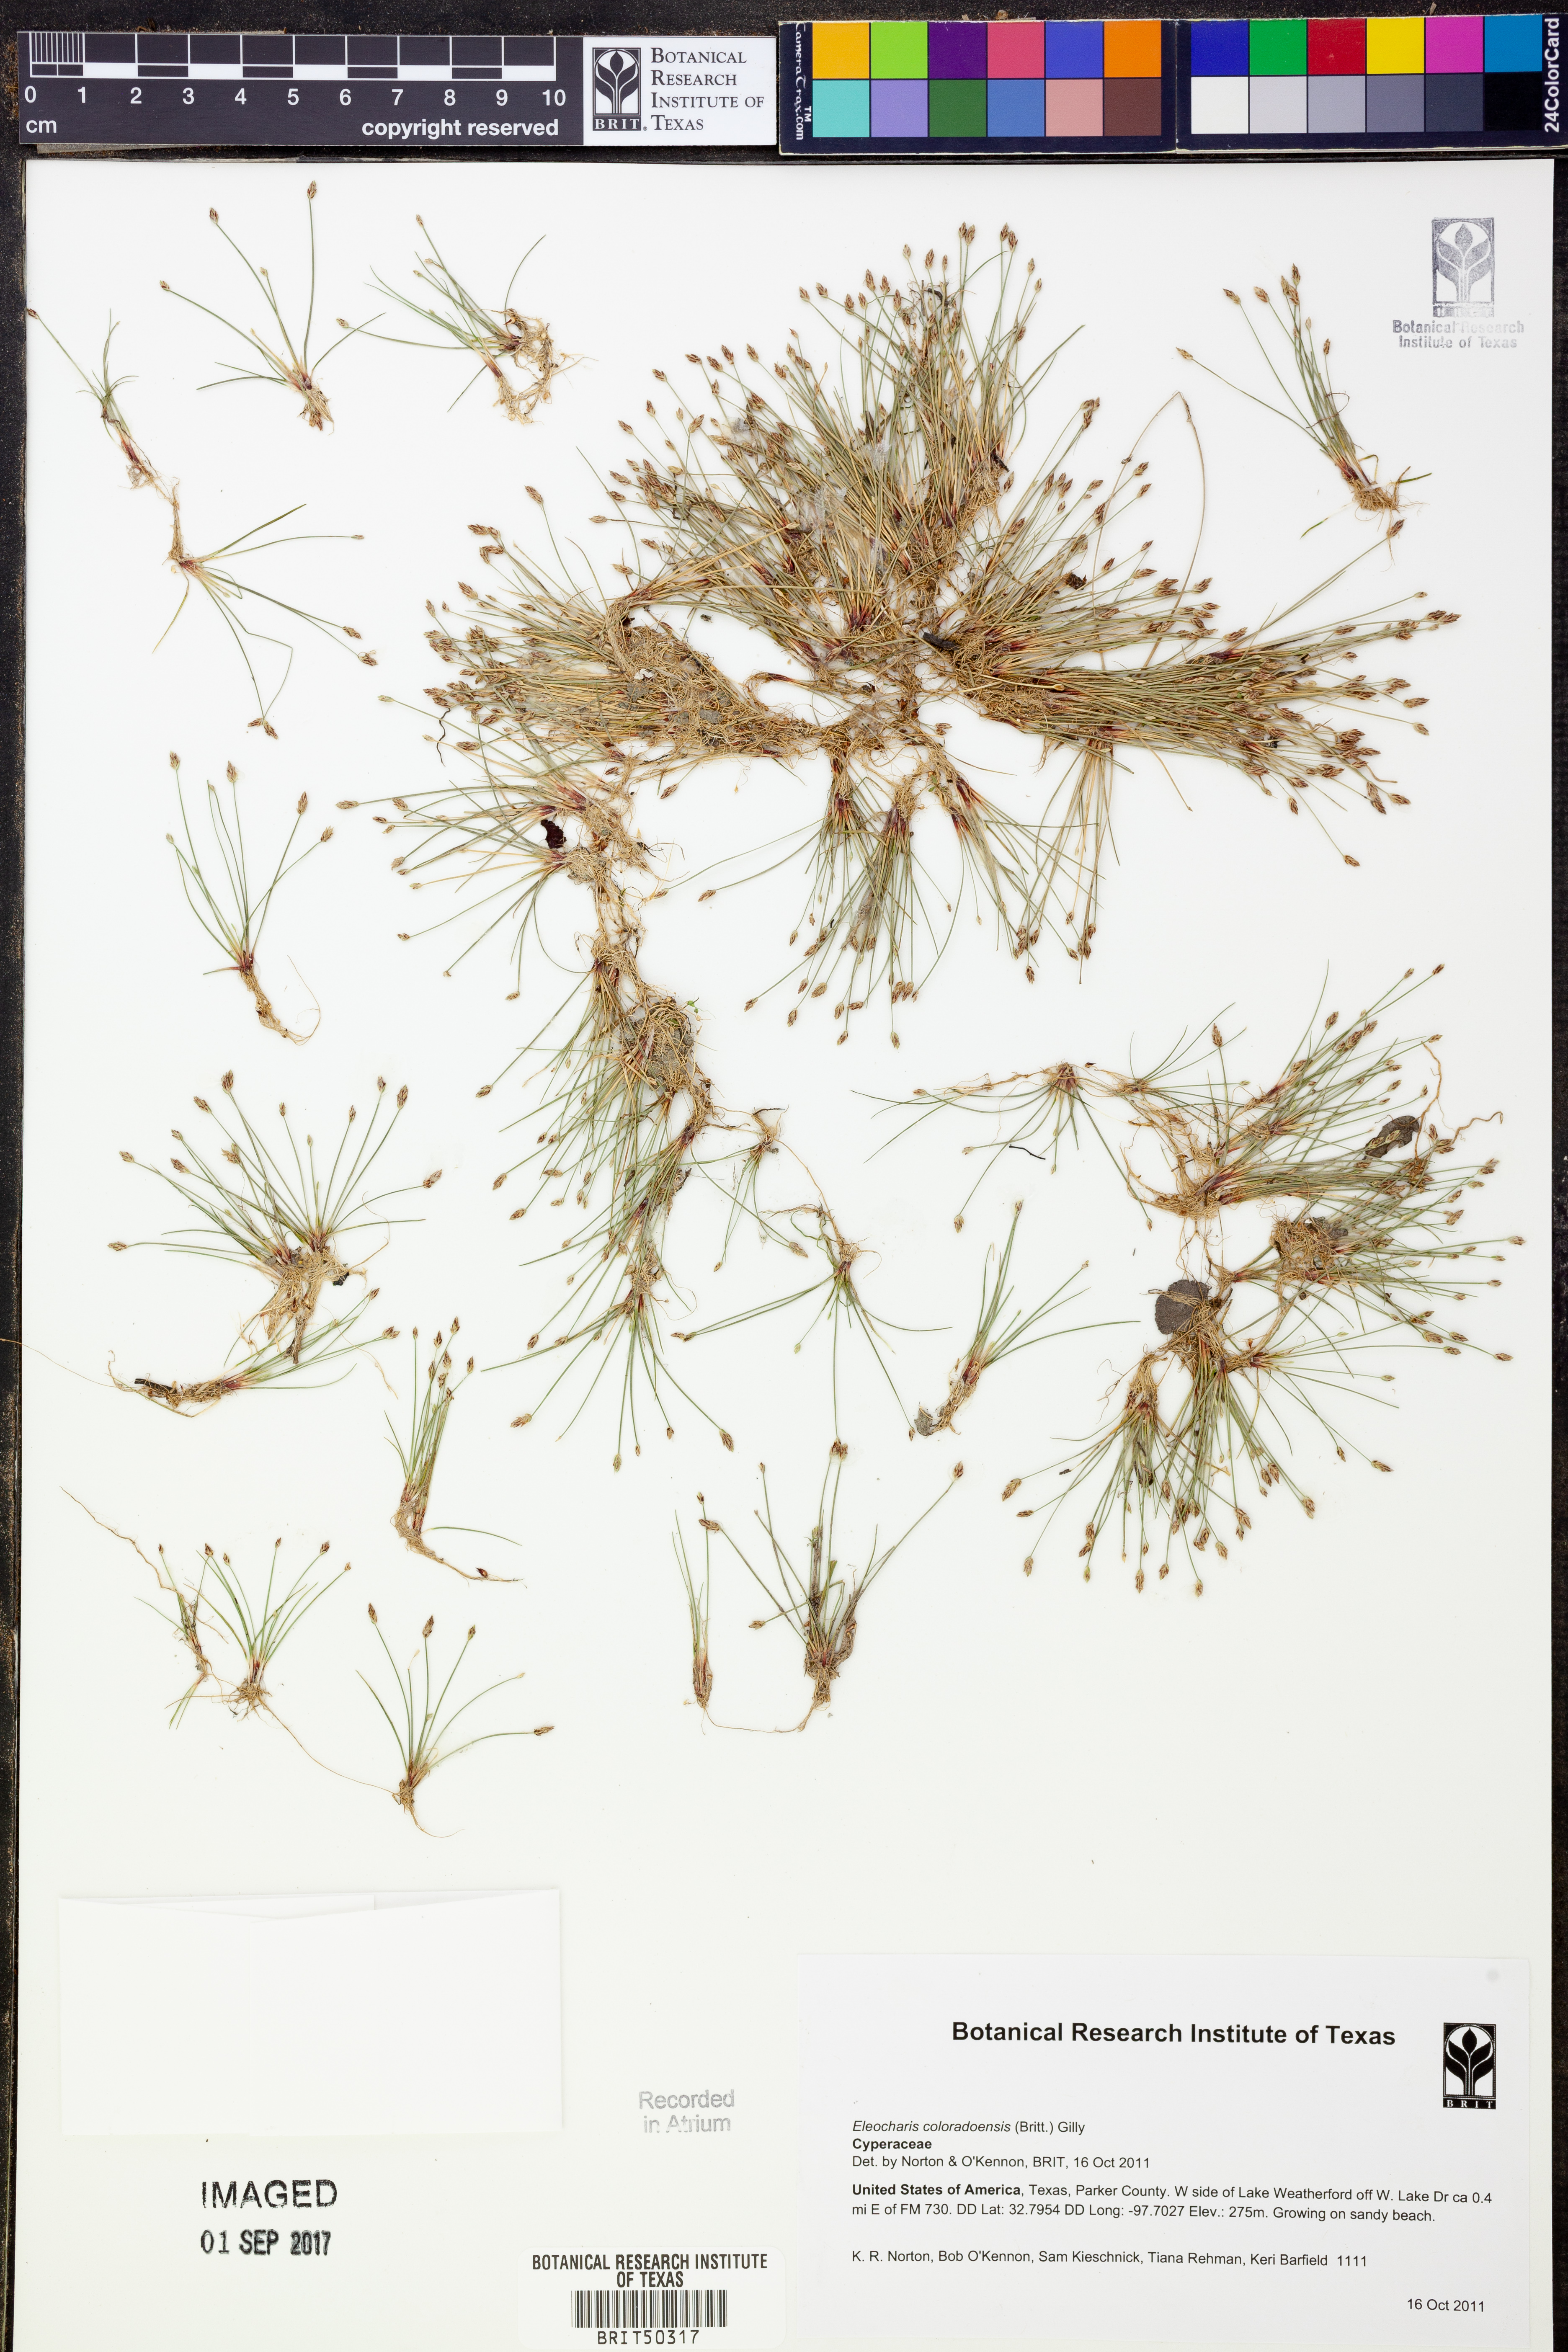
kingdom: Plantae
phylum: Tracheophyta
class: Liliopsida
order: Poales
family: Cyperaceae
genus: Eleocharis
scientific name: Eleocharis coloradoensis
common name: Colorado spikerush
